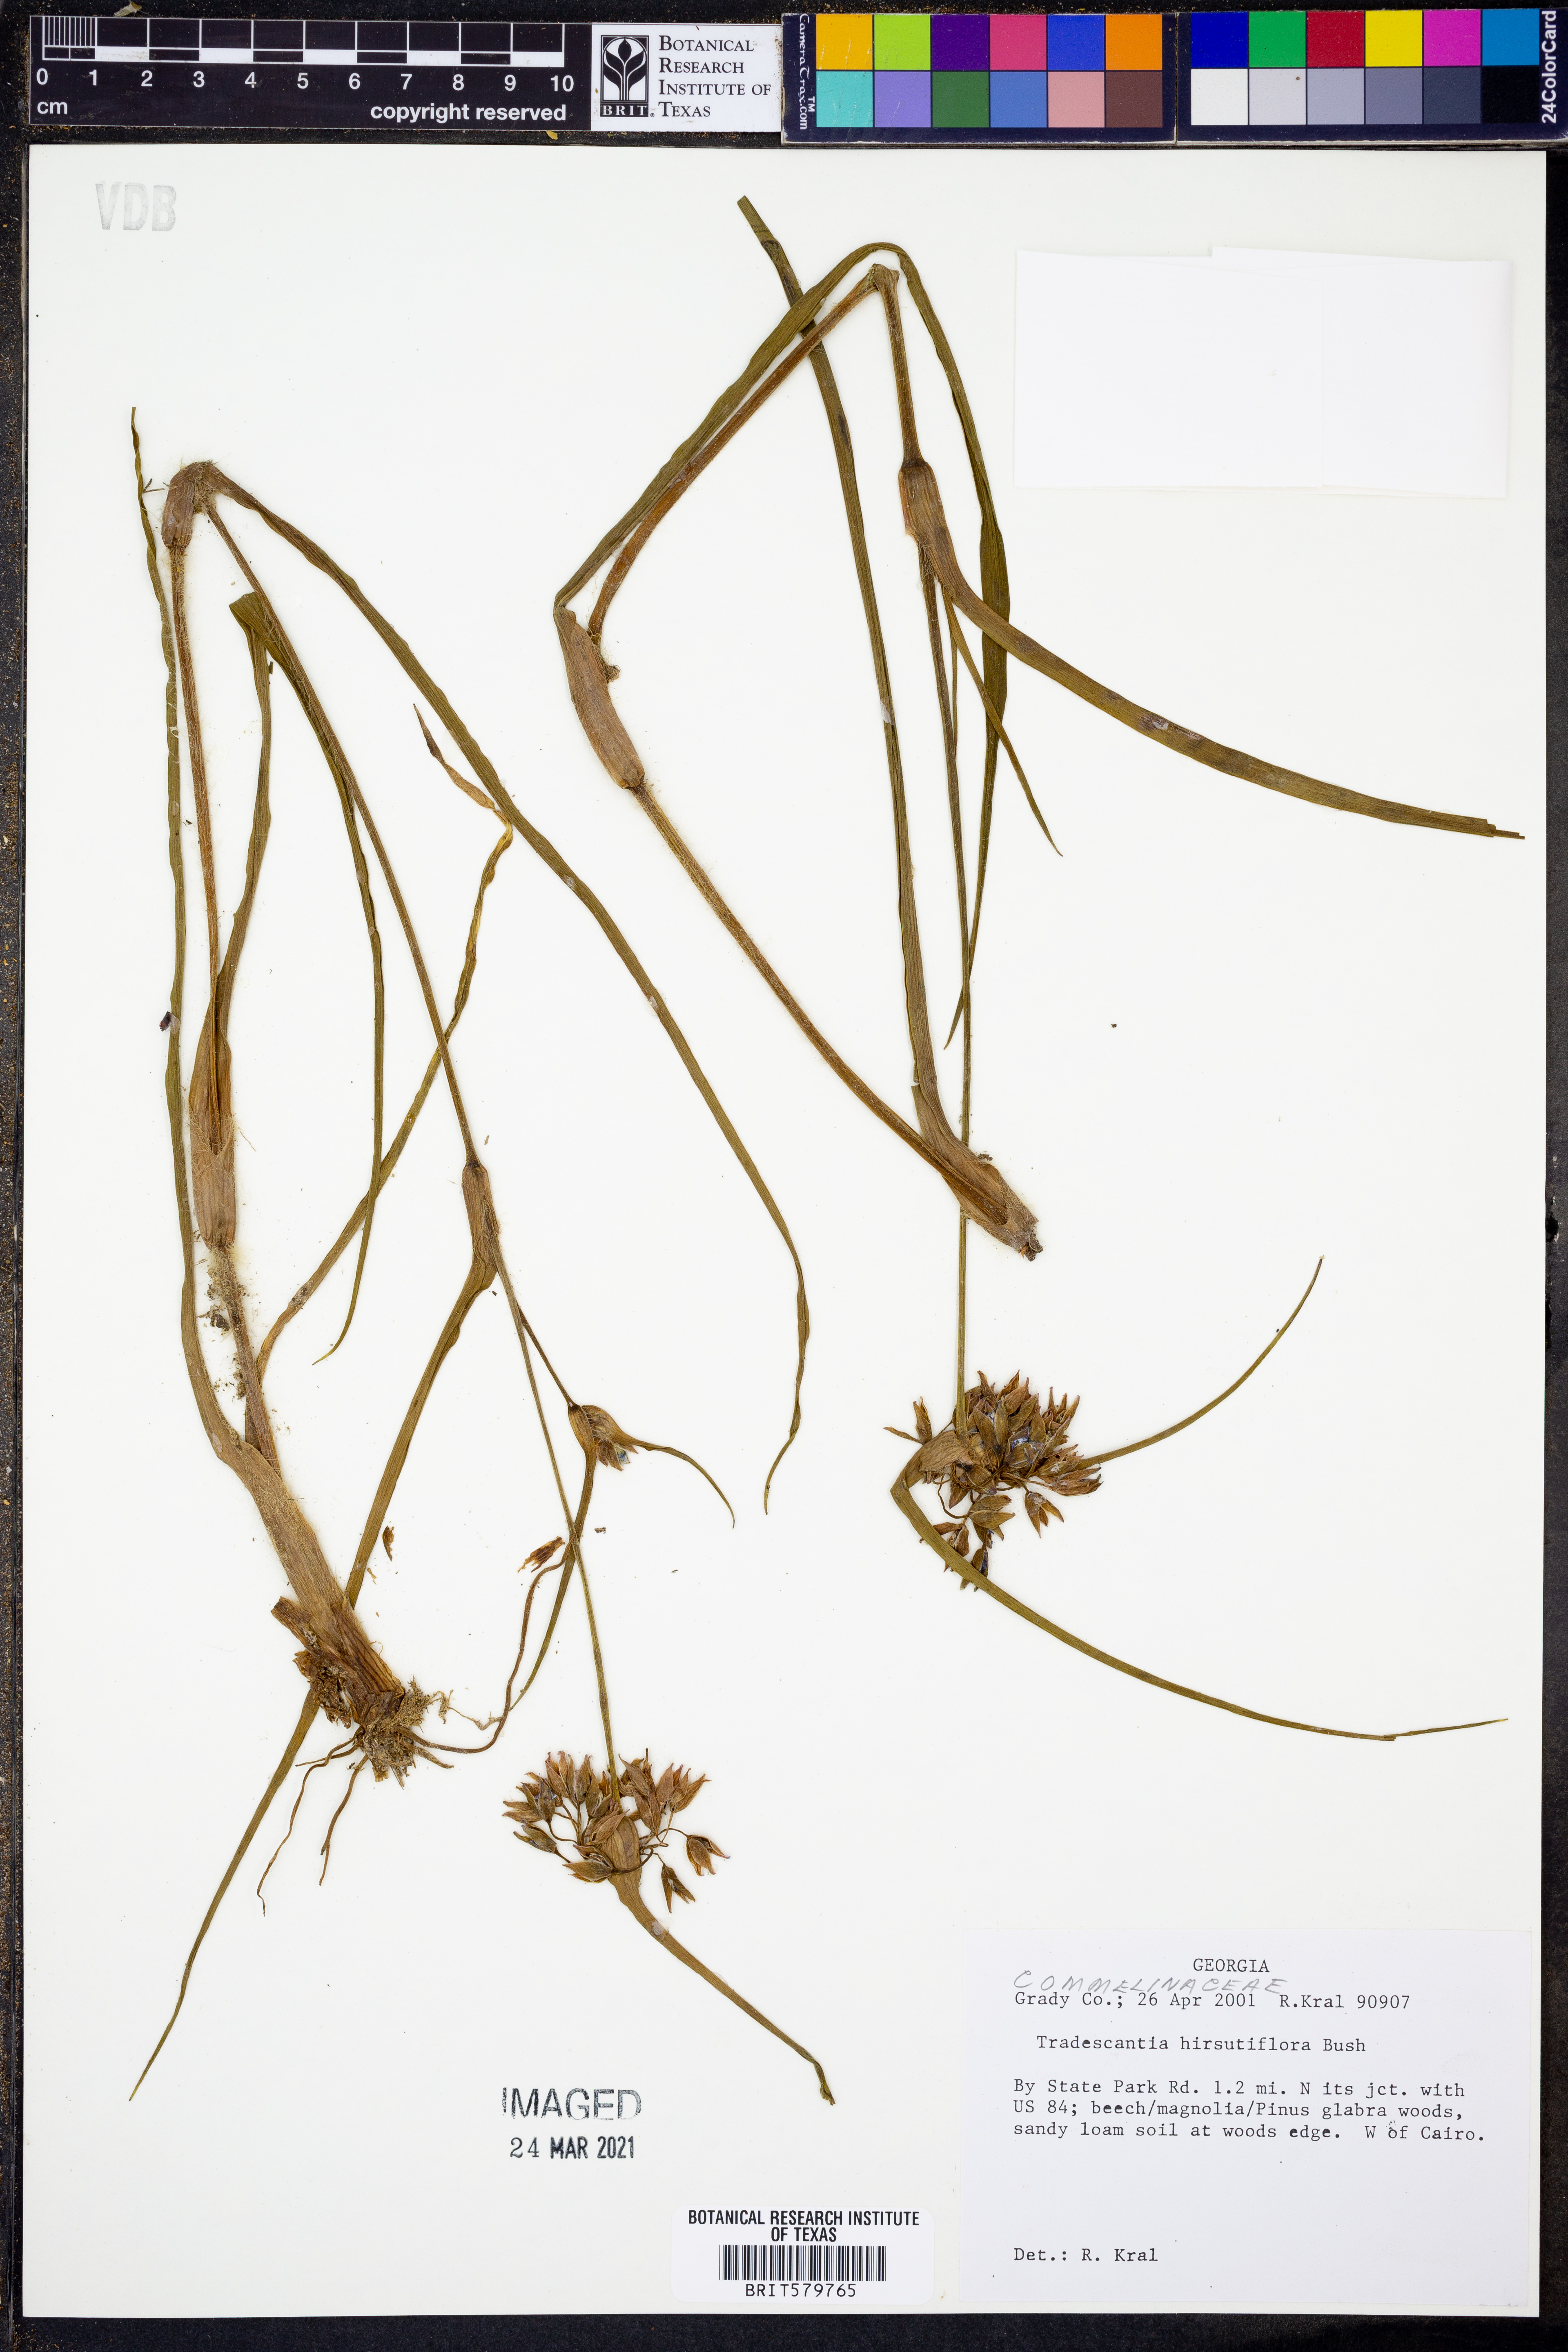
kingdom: Plantae
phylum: Tracheophyta
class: Liliopsida
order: Commelinales
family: Commelinaceae
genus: Tradescantia
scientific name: Tradescantia hirsutiflora
